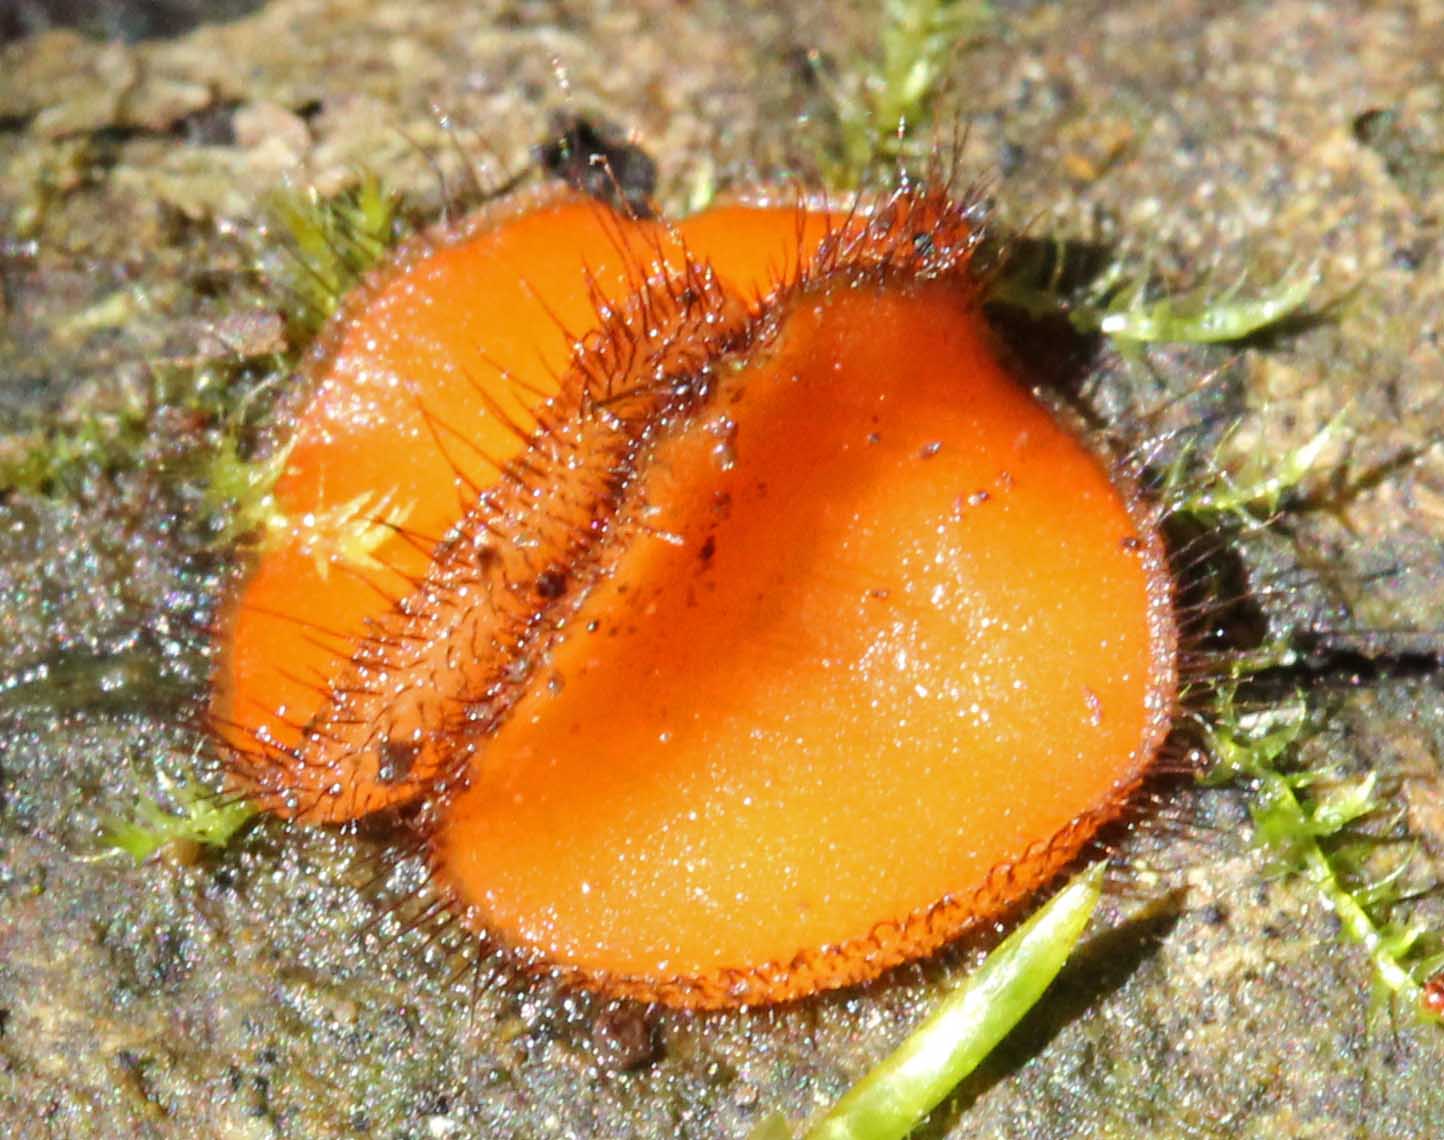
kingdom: Fungi
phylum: Ascomycota
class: Pezizomycetes
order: Pezizales
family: Pyronemataceae
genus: Scutellinia
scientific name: Scutellinia scutellata
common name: frynset skjoldbæger
